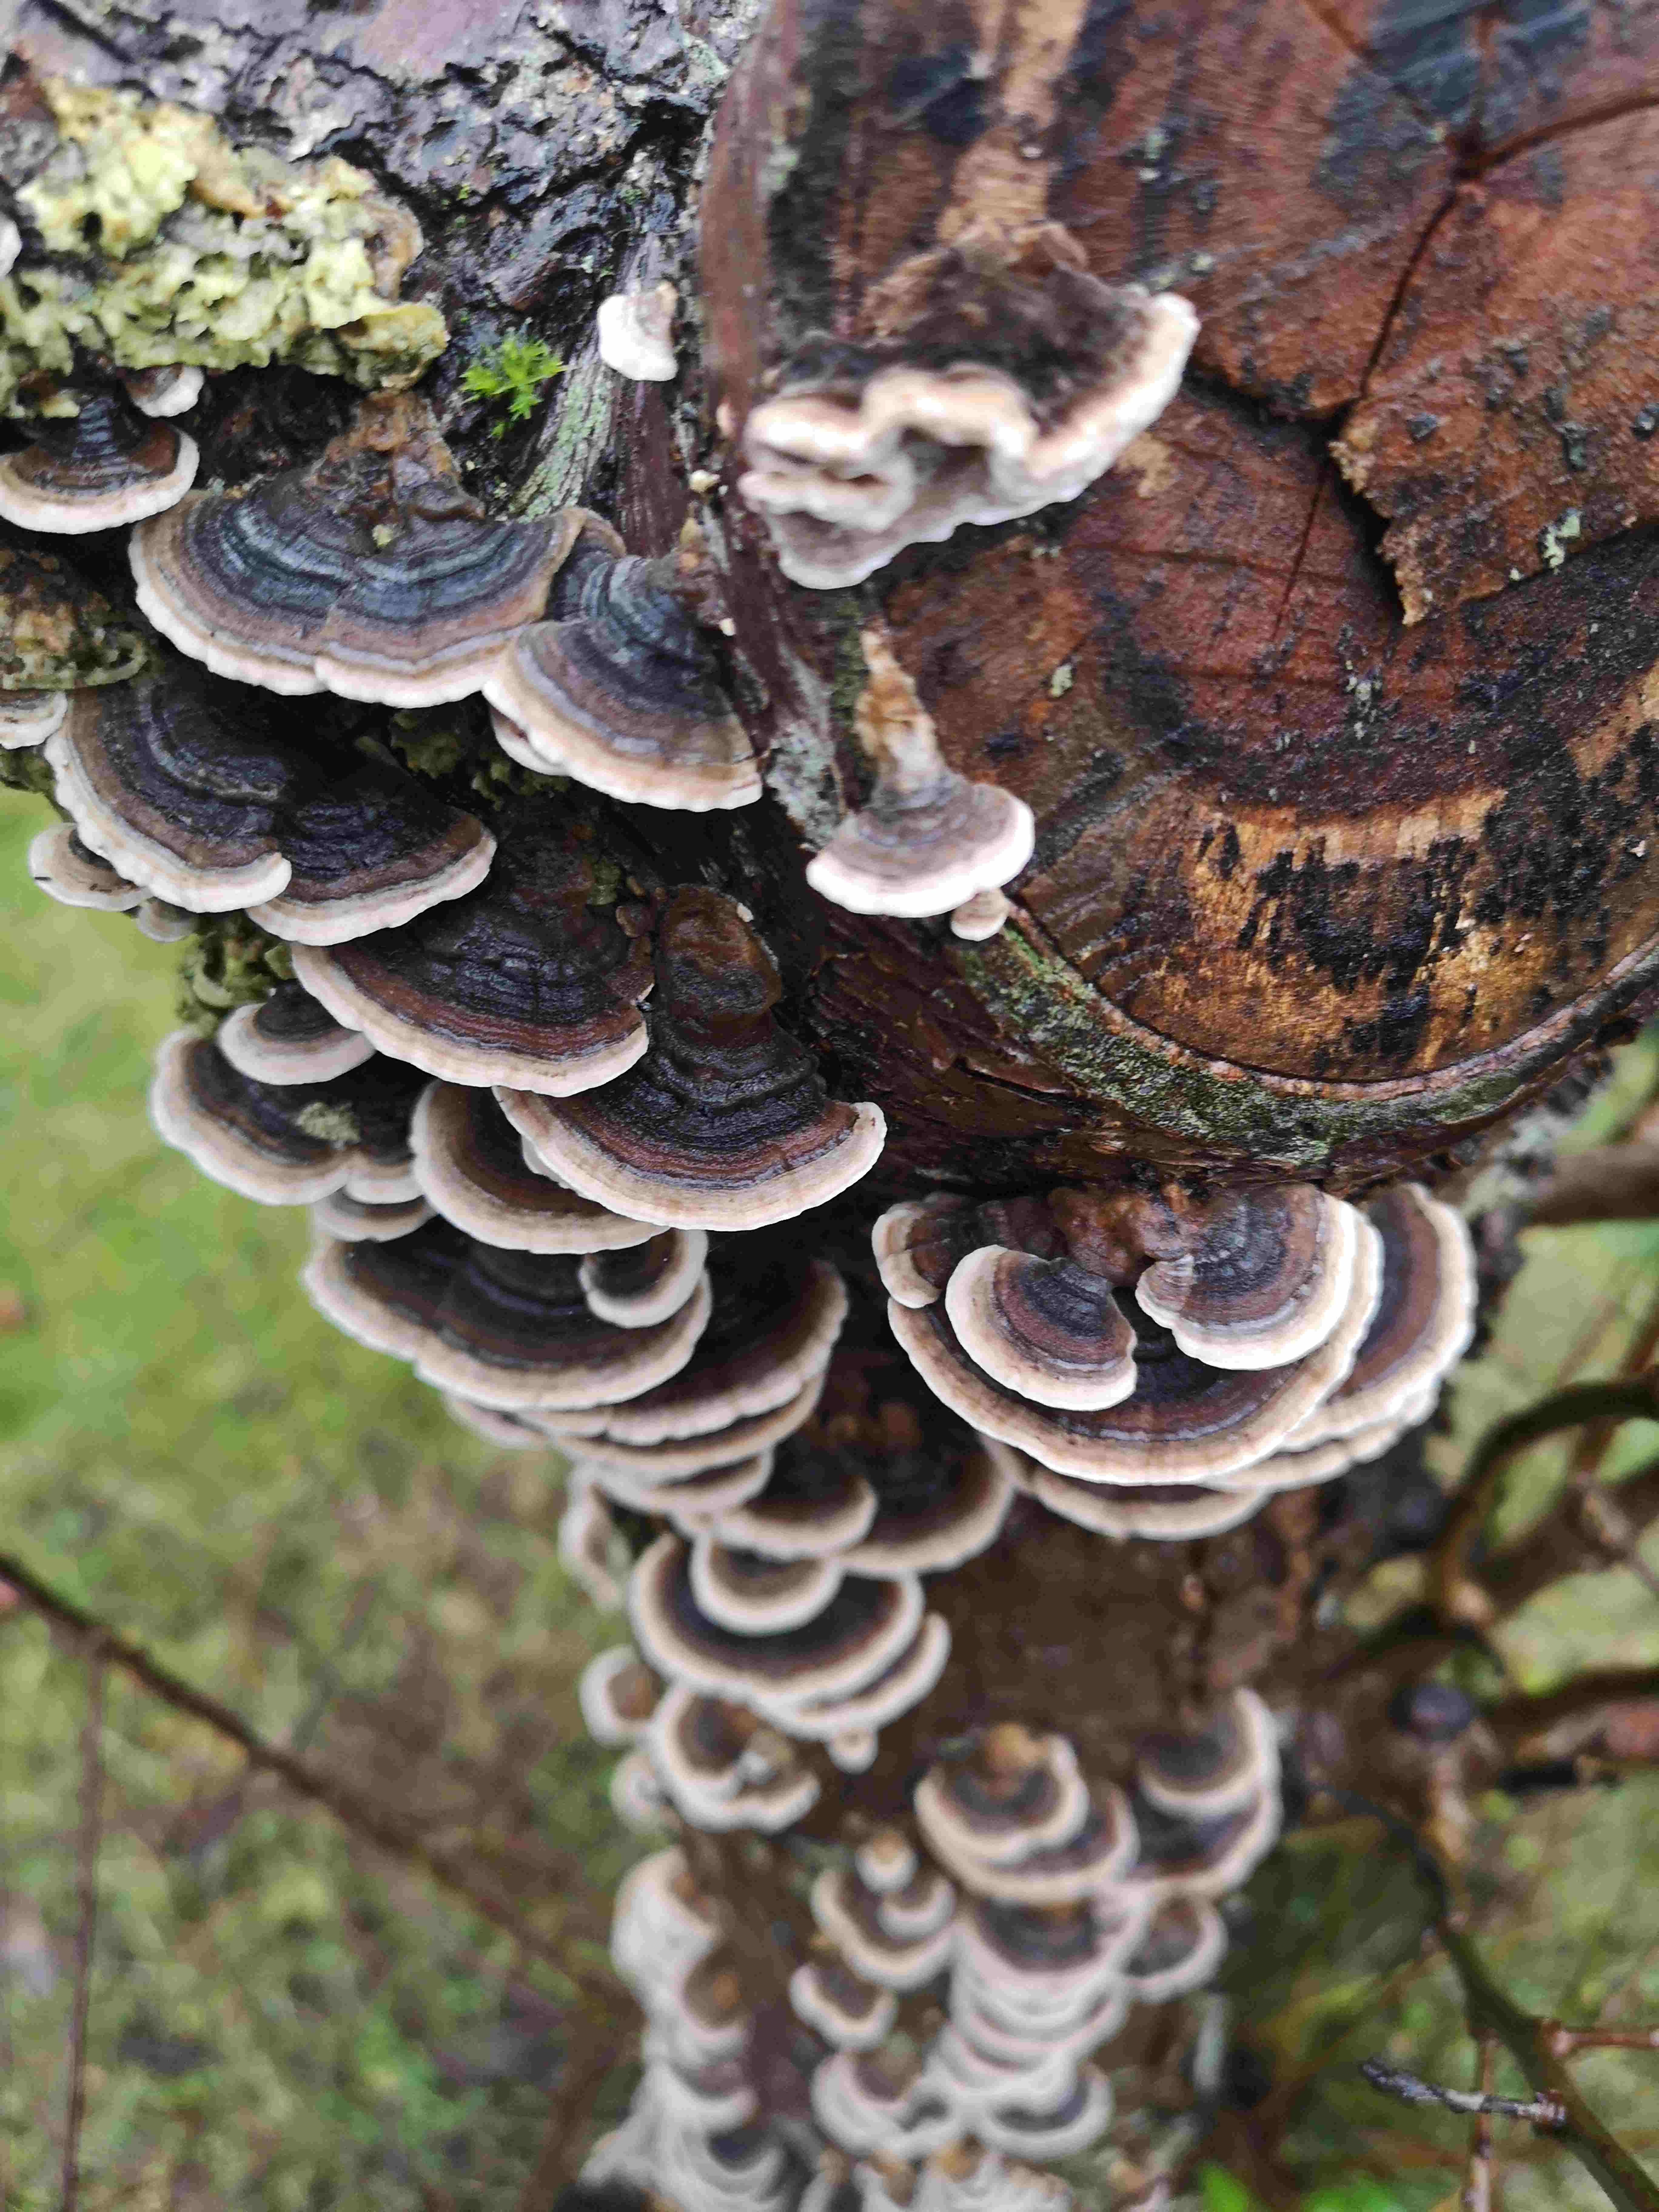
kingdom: Fungi
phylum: Basidiomycota
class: Agaricomycetes
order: Polyporales
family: Polyporaceae
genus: Trametes
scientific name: Trametes versicolor
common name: broget læderporesvamp
